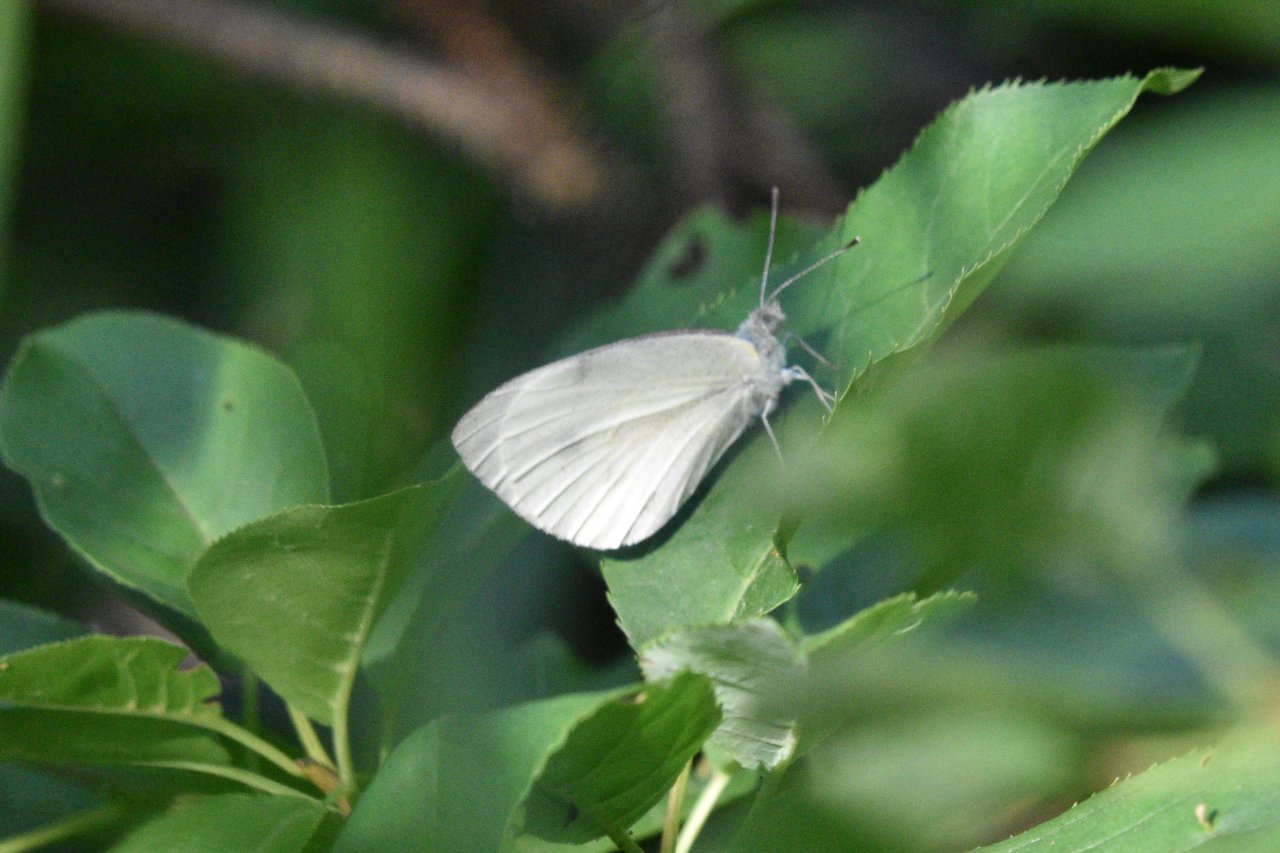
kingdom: Animalia
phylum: Arthropoda
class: Insecta
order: Lepidoptera
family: Pieridae
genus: Pieris
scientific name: Pieris rapae
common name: Cabbage White
